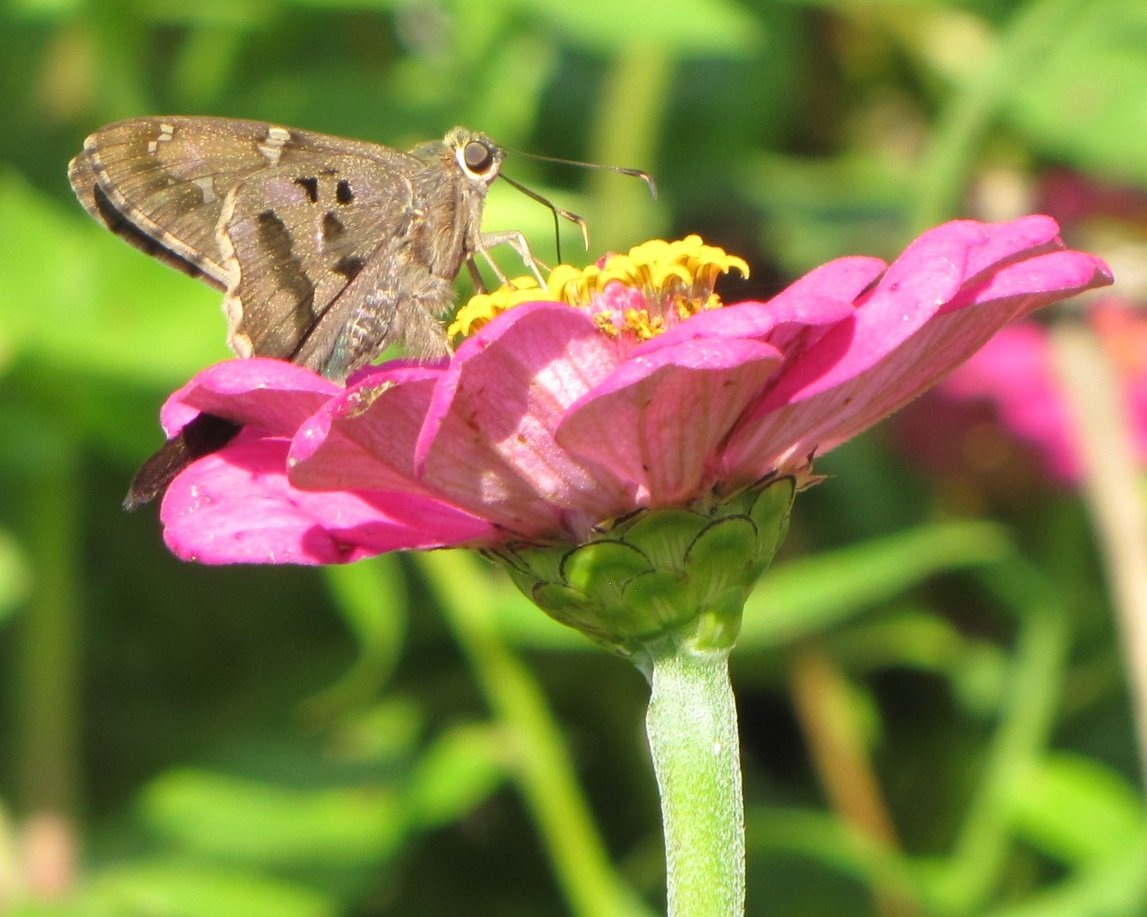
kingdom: Animalia
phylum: Arthropoda
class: Insecta
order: Lepidoptera
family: Hesperiidae
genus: Urbanus
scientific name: Urbanus proteus
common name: Long-tailed Skipper
